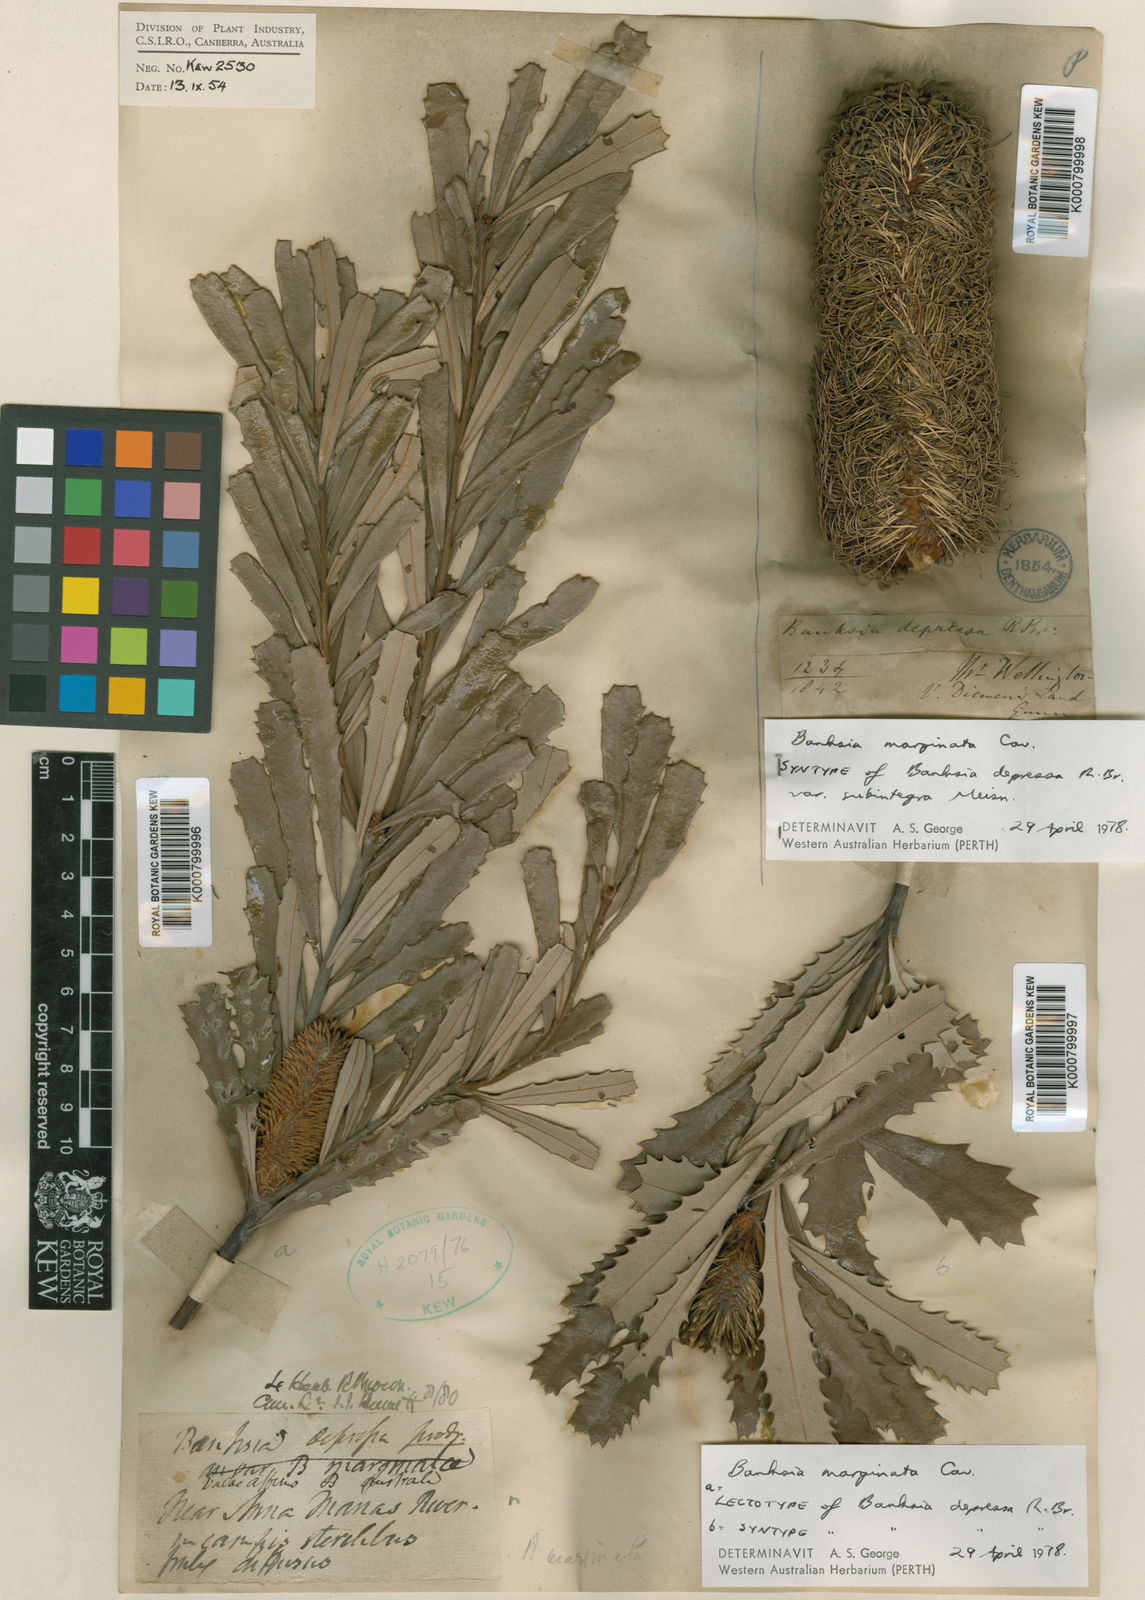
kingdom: Plantae
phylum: Tracheophyta
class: Magnoliopsida
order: Proteales
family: Proteaceae
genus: Banksia
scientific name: Banksia marginata
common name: Silver banksia
